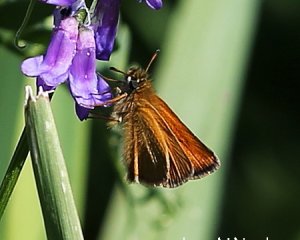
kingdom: Animalia
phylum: Arthropoda
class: Insecta
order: Lepidoptera
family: Hesperiidae
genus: Thymelicus
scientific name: Thymelicus lineola
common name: European Skipper
